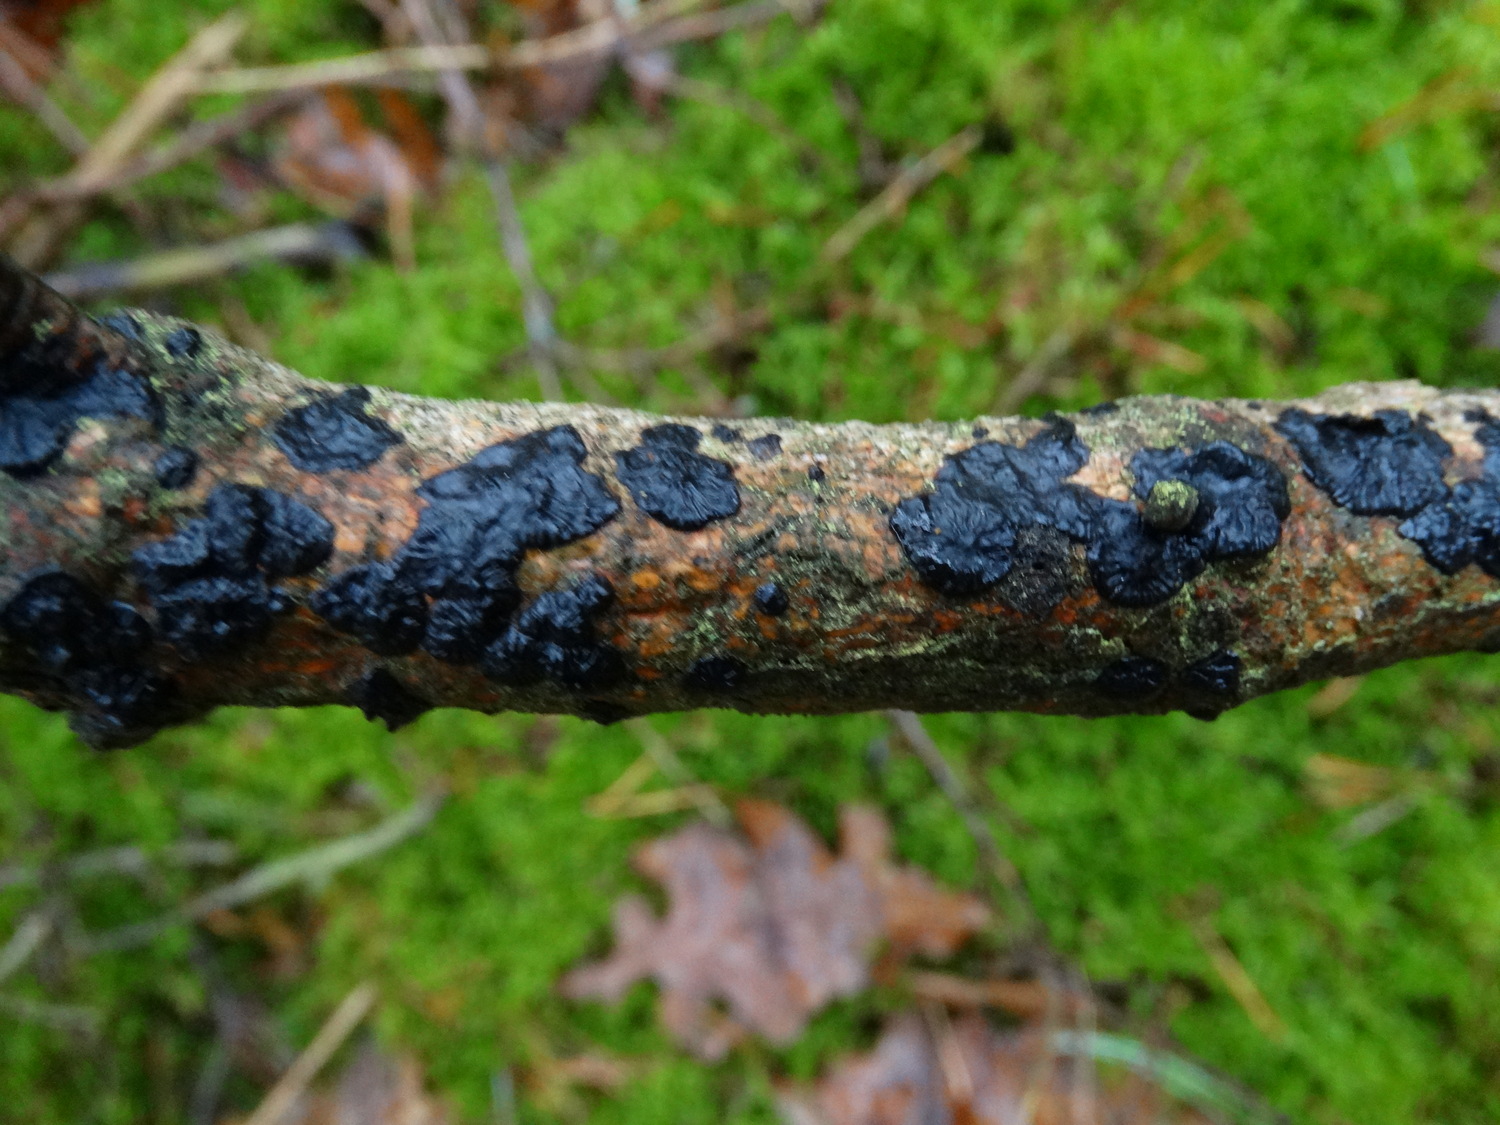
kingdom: Fungi
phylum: Basidiomycota
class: Agaricomycetes
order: Auriculariales
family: Auriculariaceae
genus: Exidia
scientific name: Exidia pithya
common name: gran-bævretop
